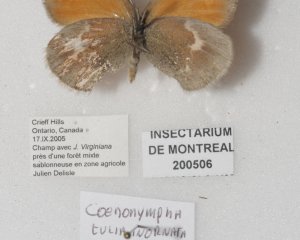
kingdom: Animalia
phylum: Arthropoda
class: Insecta
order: Lepidoptera
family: Nymphalidae
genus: Coenonympha
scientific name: Coenonympha tullia
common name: Large Heath
